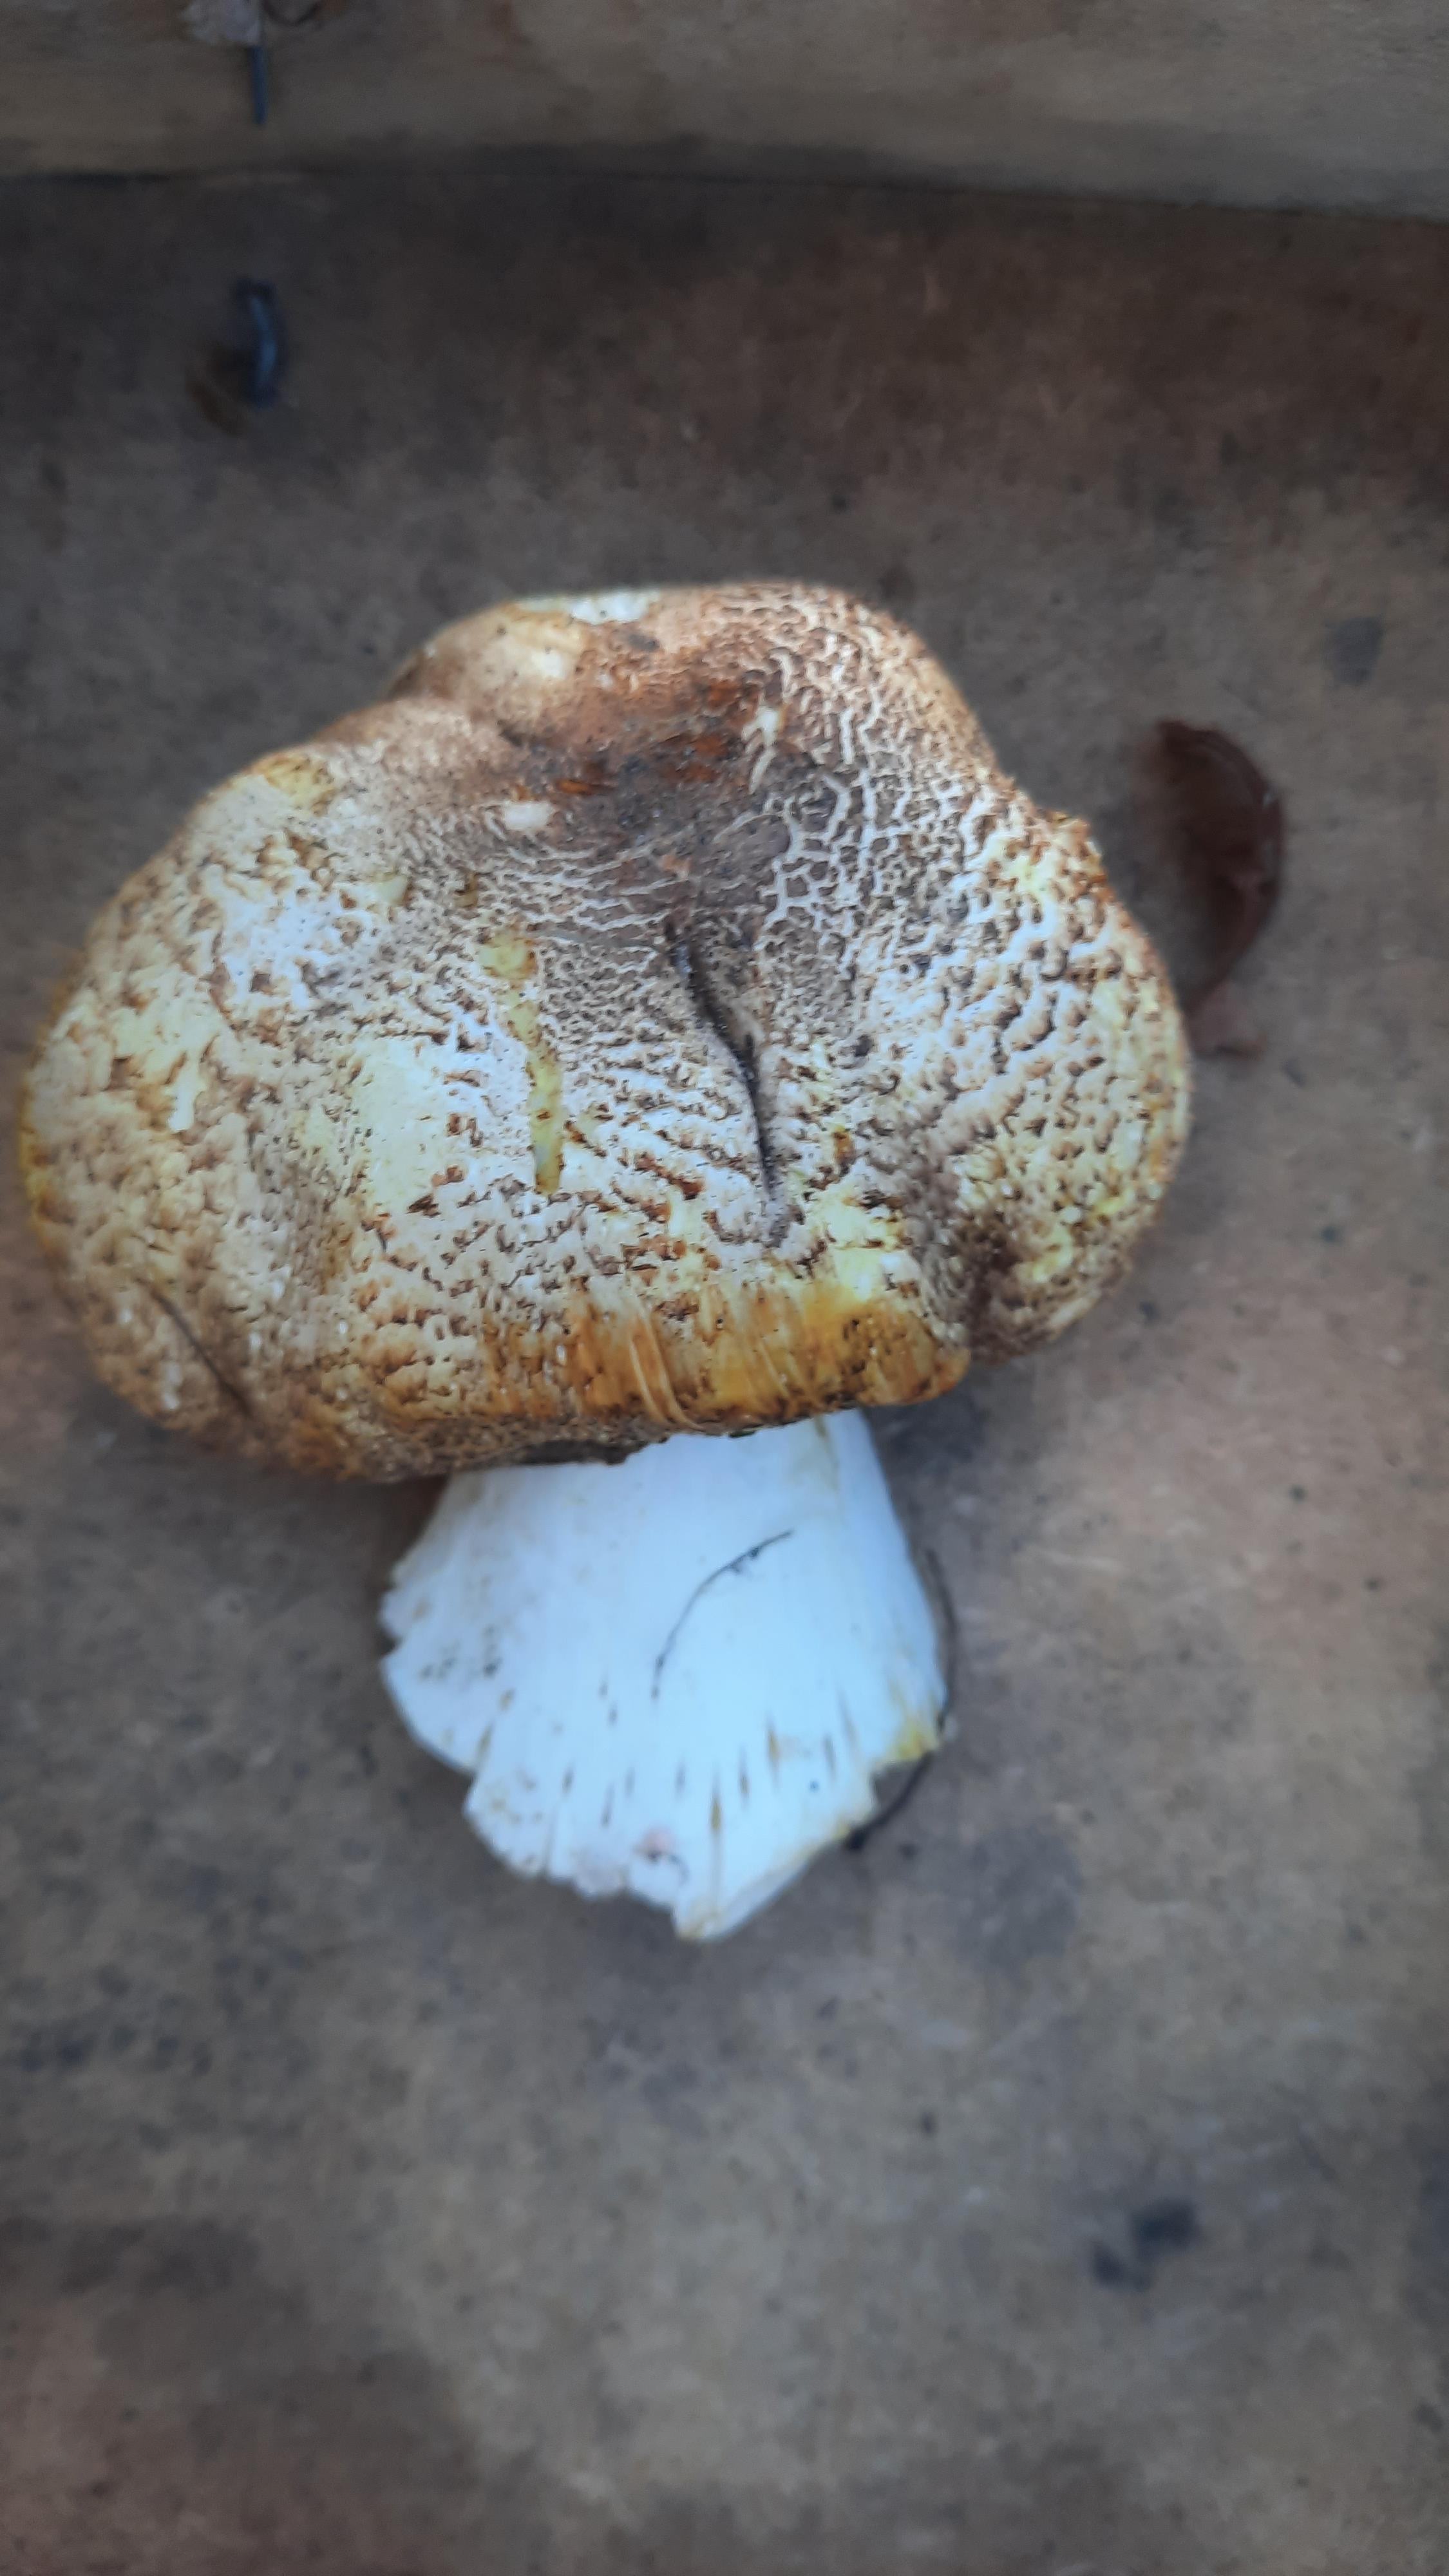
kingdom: Fungi
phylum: Basidiomycota
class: Agaricomycetes
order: Agaricales
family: Agaricaceae
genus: Agaricus
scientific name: Agaricus augustus
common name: prægtig champignon
